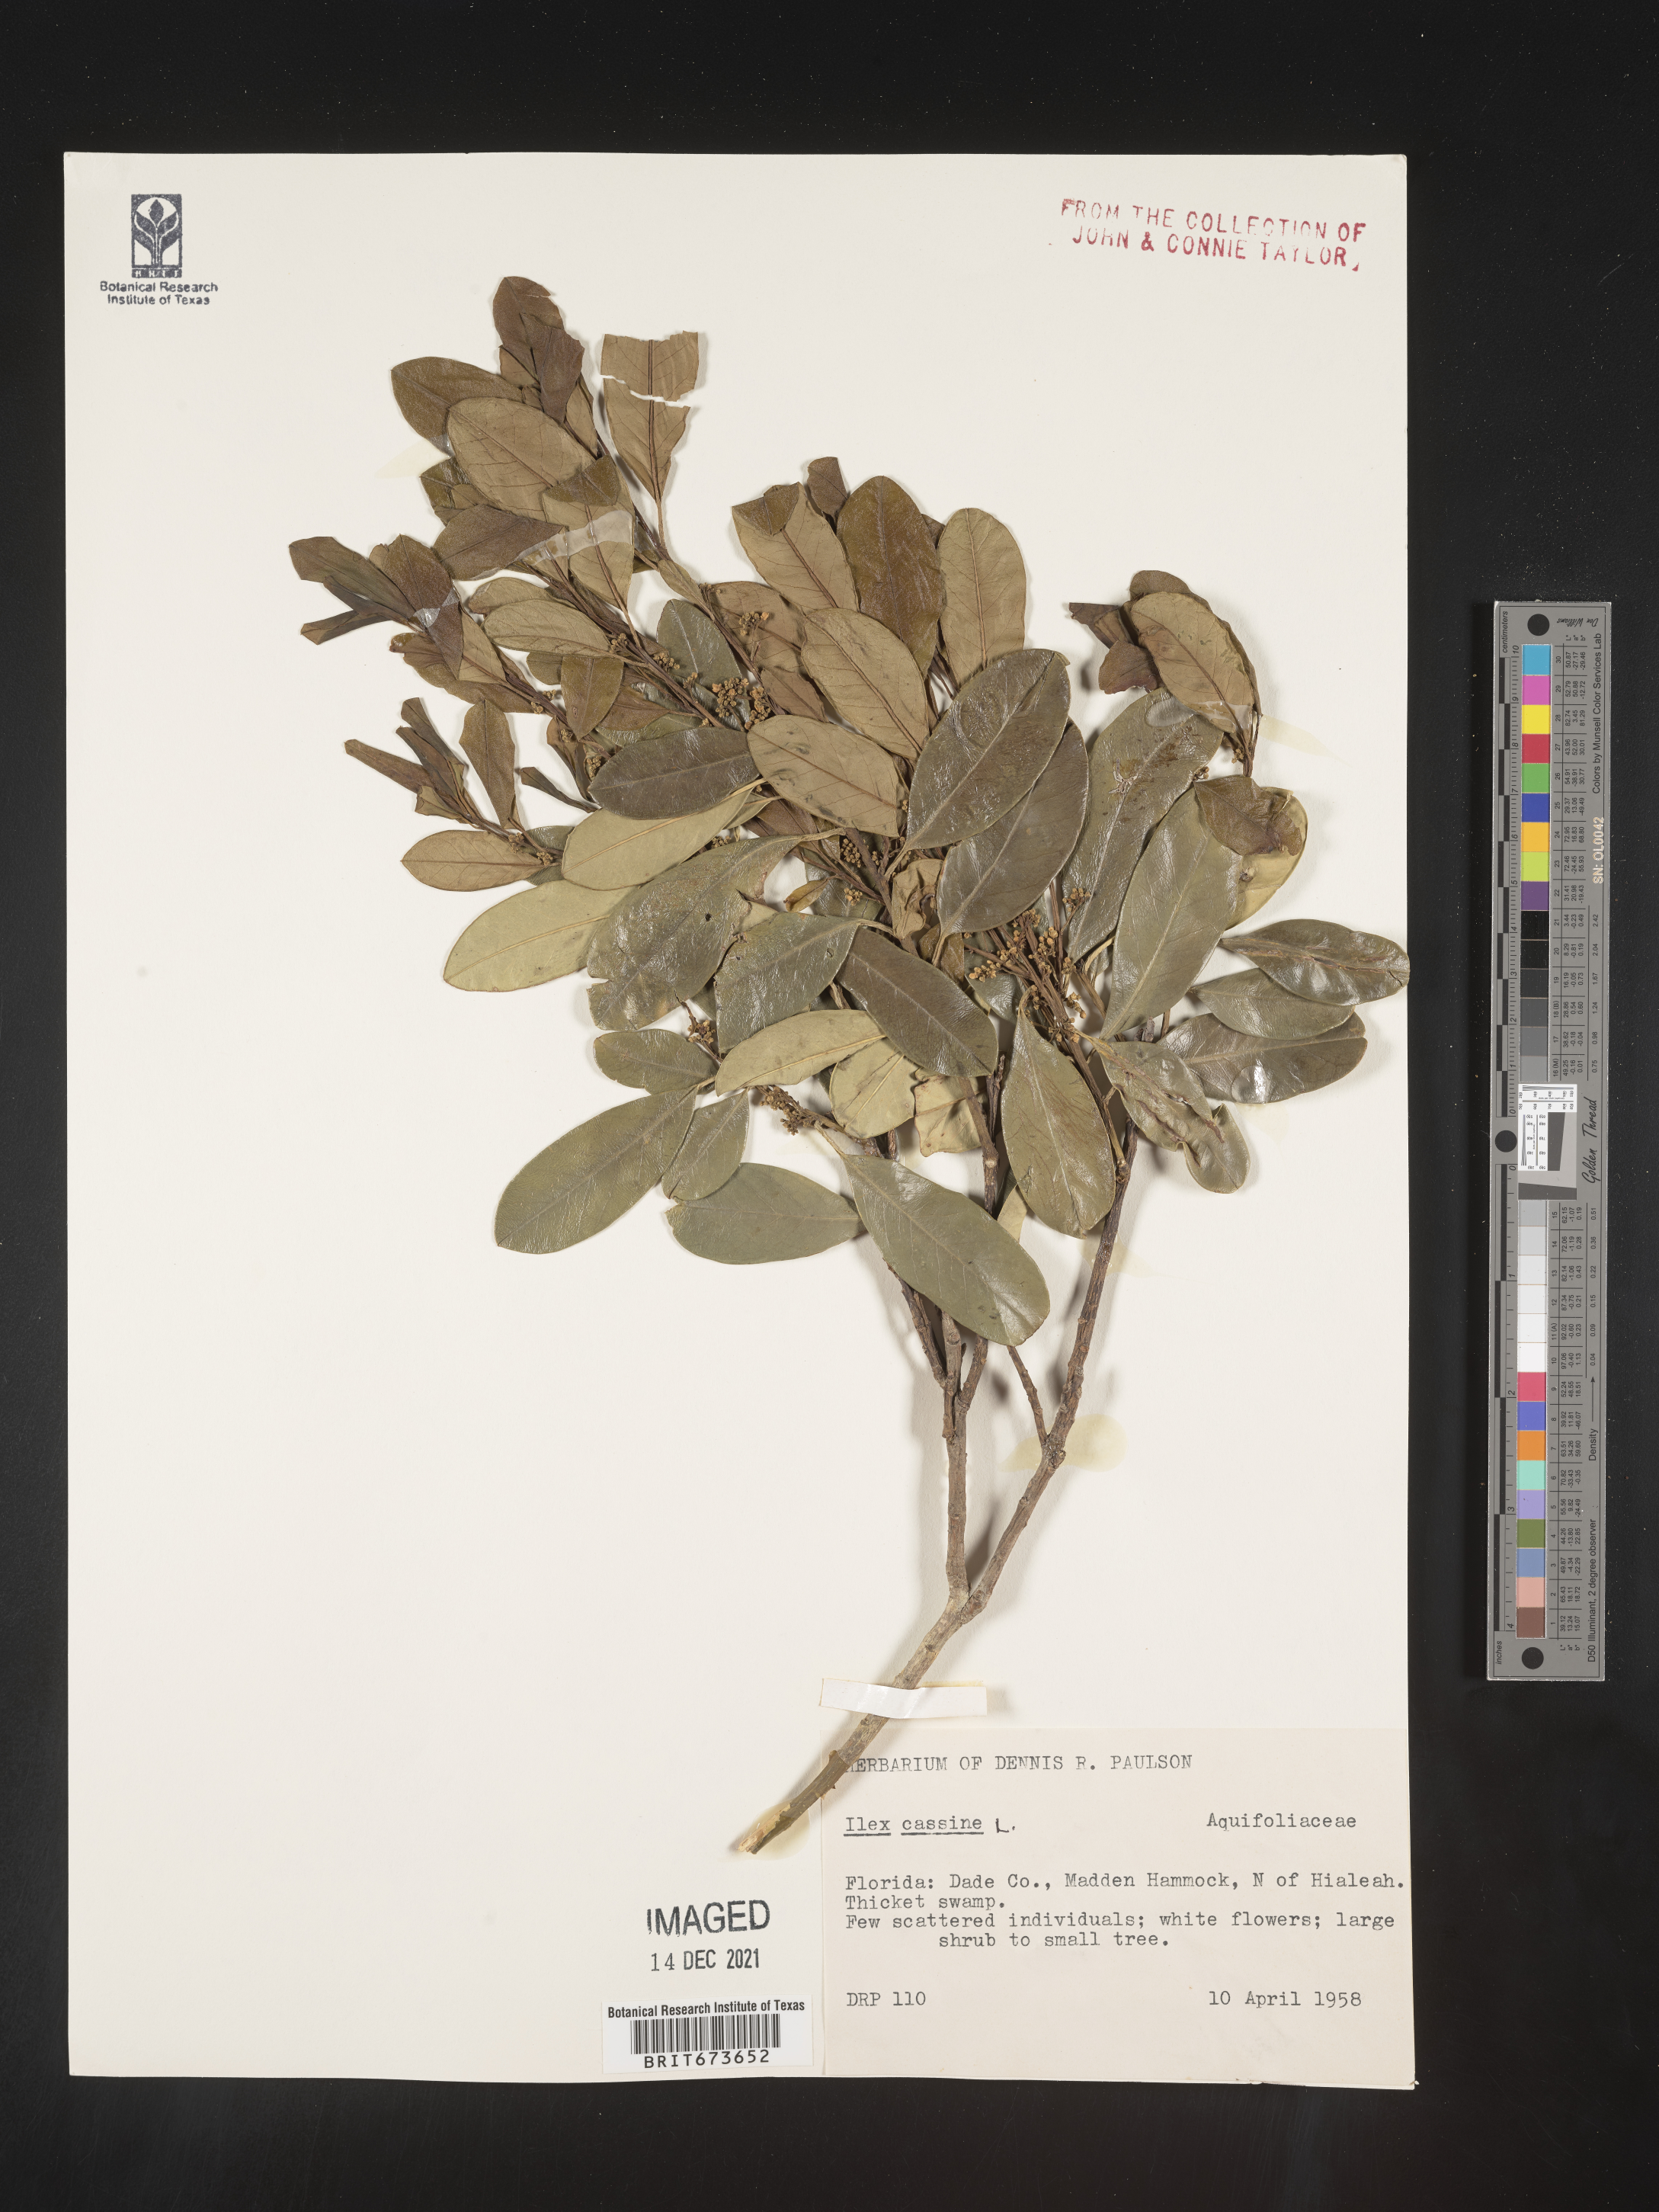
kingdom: Plantae
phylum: Tracheophyta
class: Magnoliopsida
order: Aquifoliales
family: Aquifoliaceae
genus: Ilex
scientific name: Ilex cassine
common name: Dahoon
